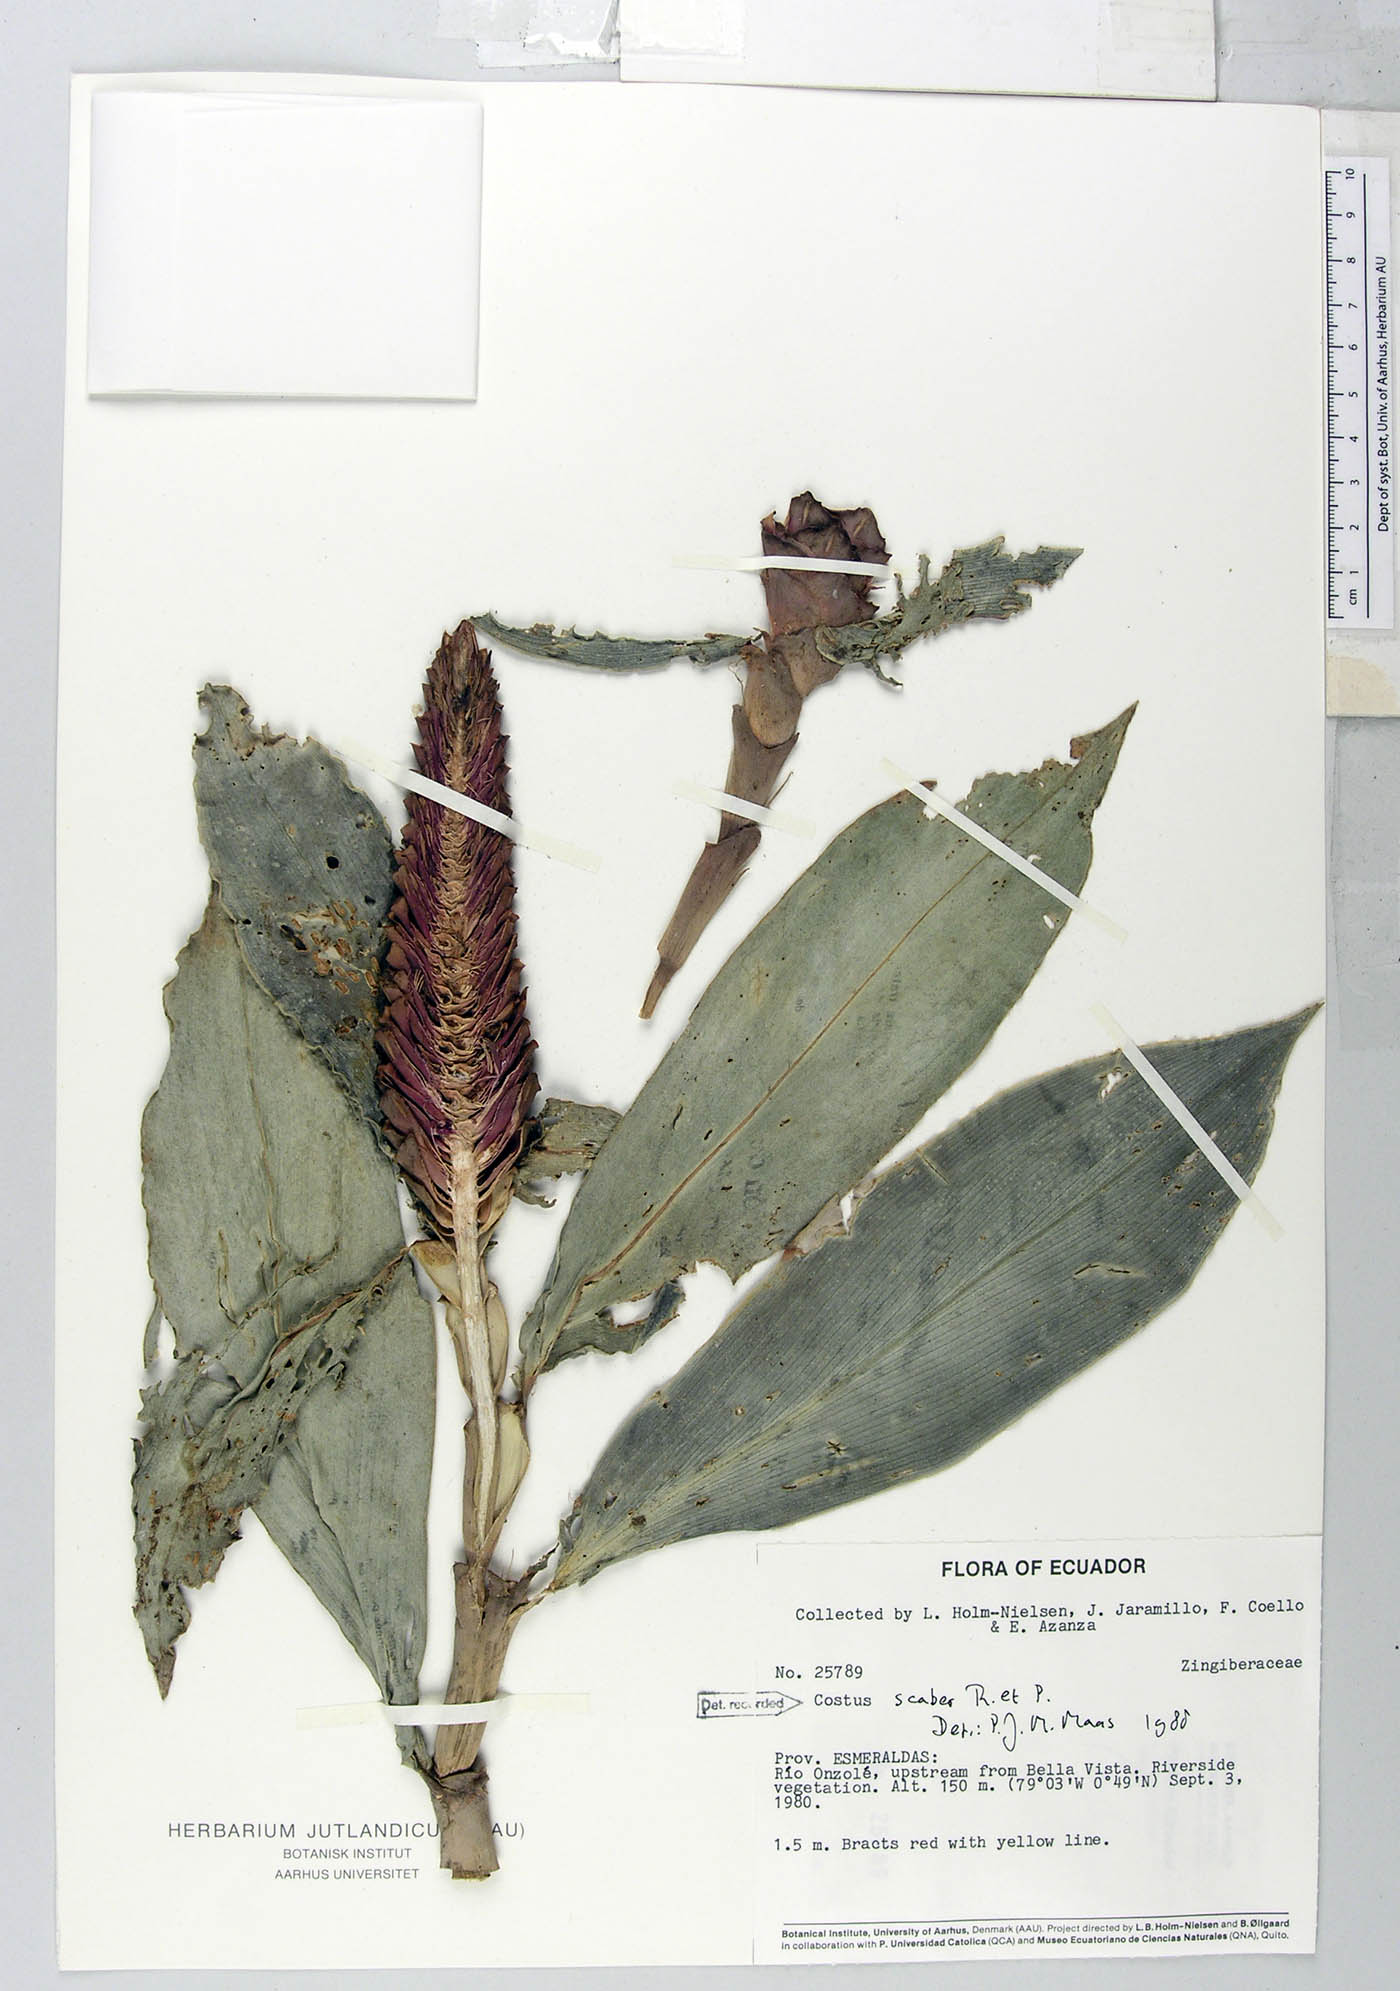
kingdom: Plantae
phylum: Tracheophyta
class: Liliopsida
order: Zingiberales
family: Costaceae
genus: Costus
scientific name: Costus scaber
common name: Spiral head ginger
